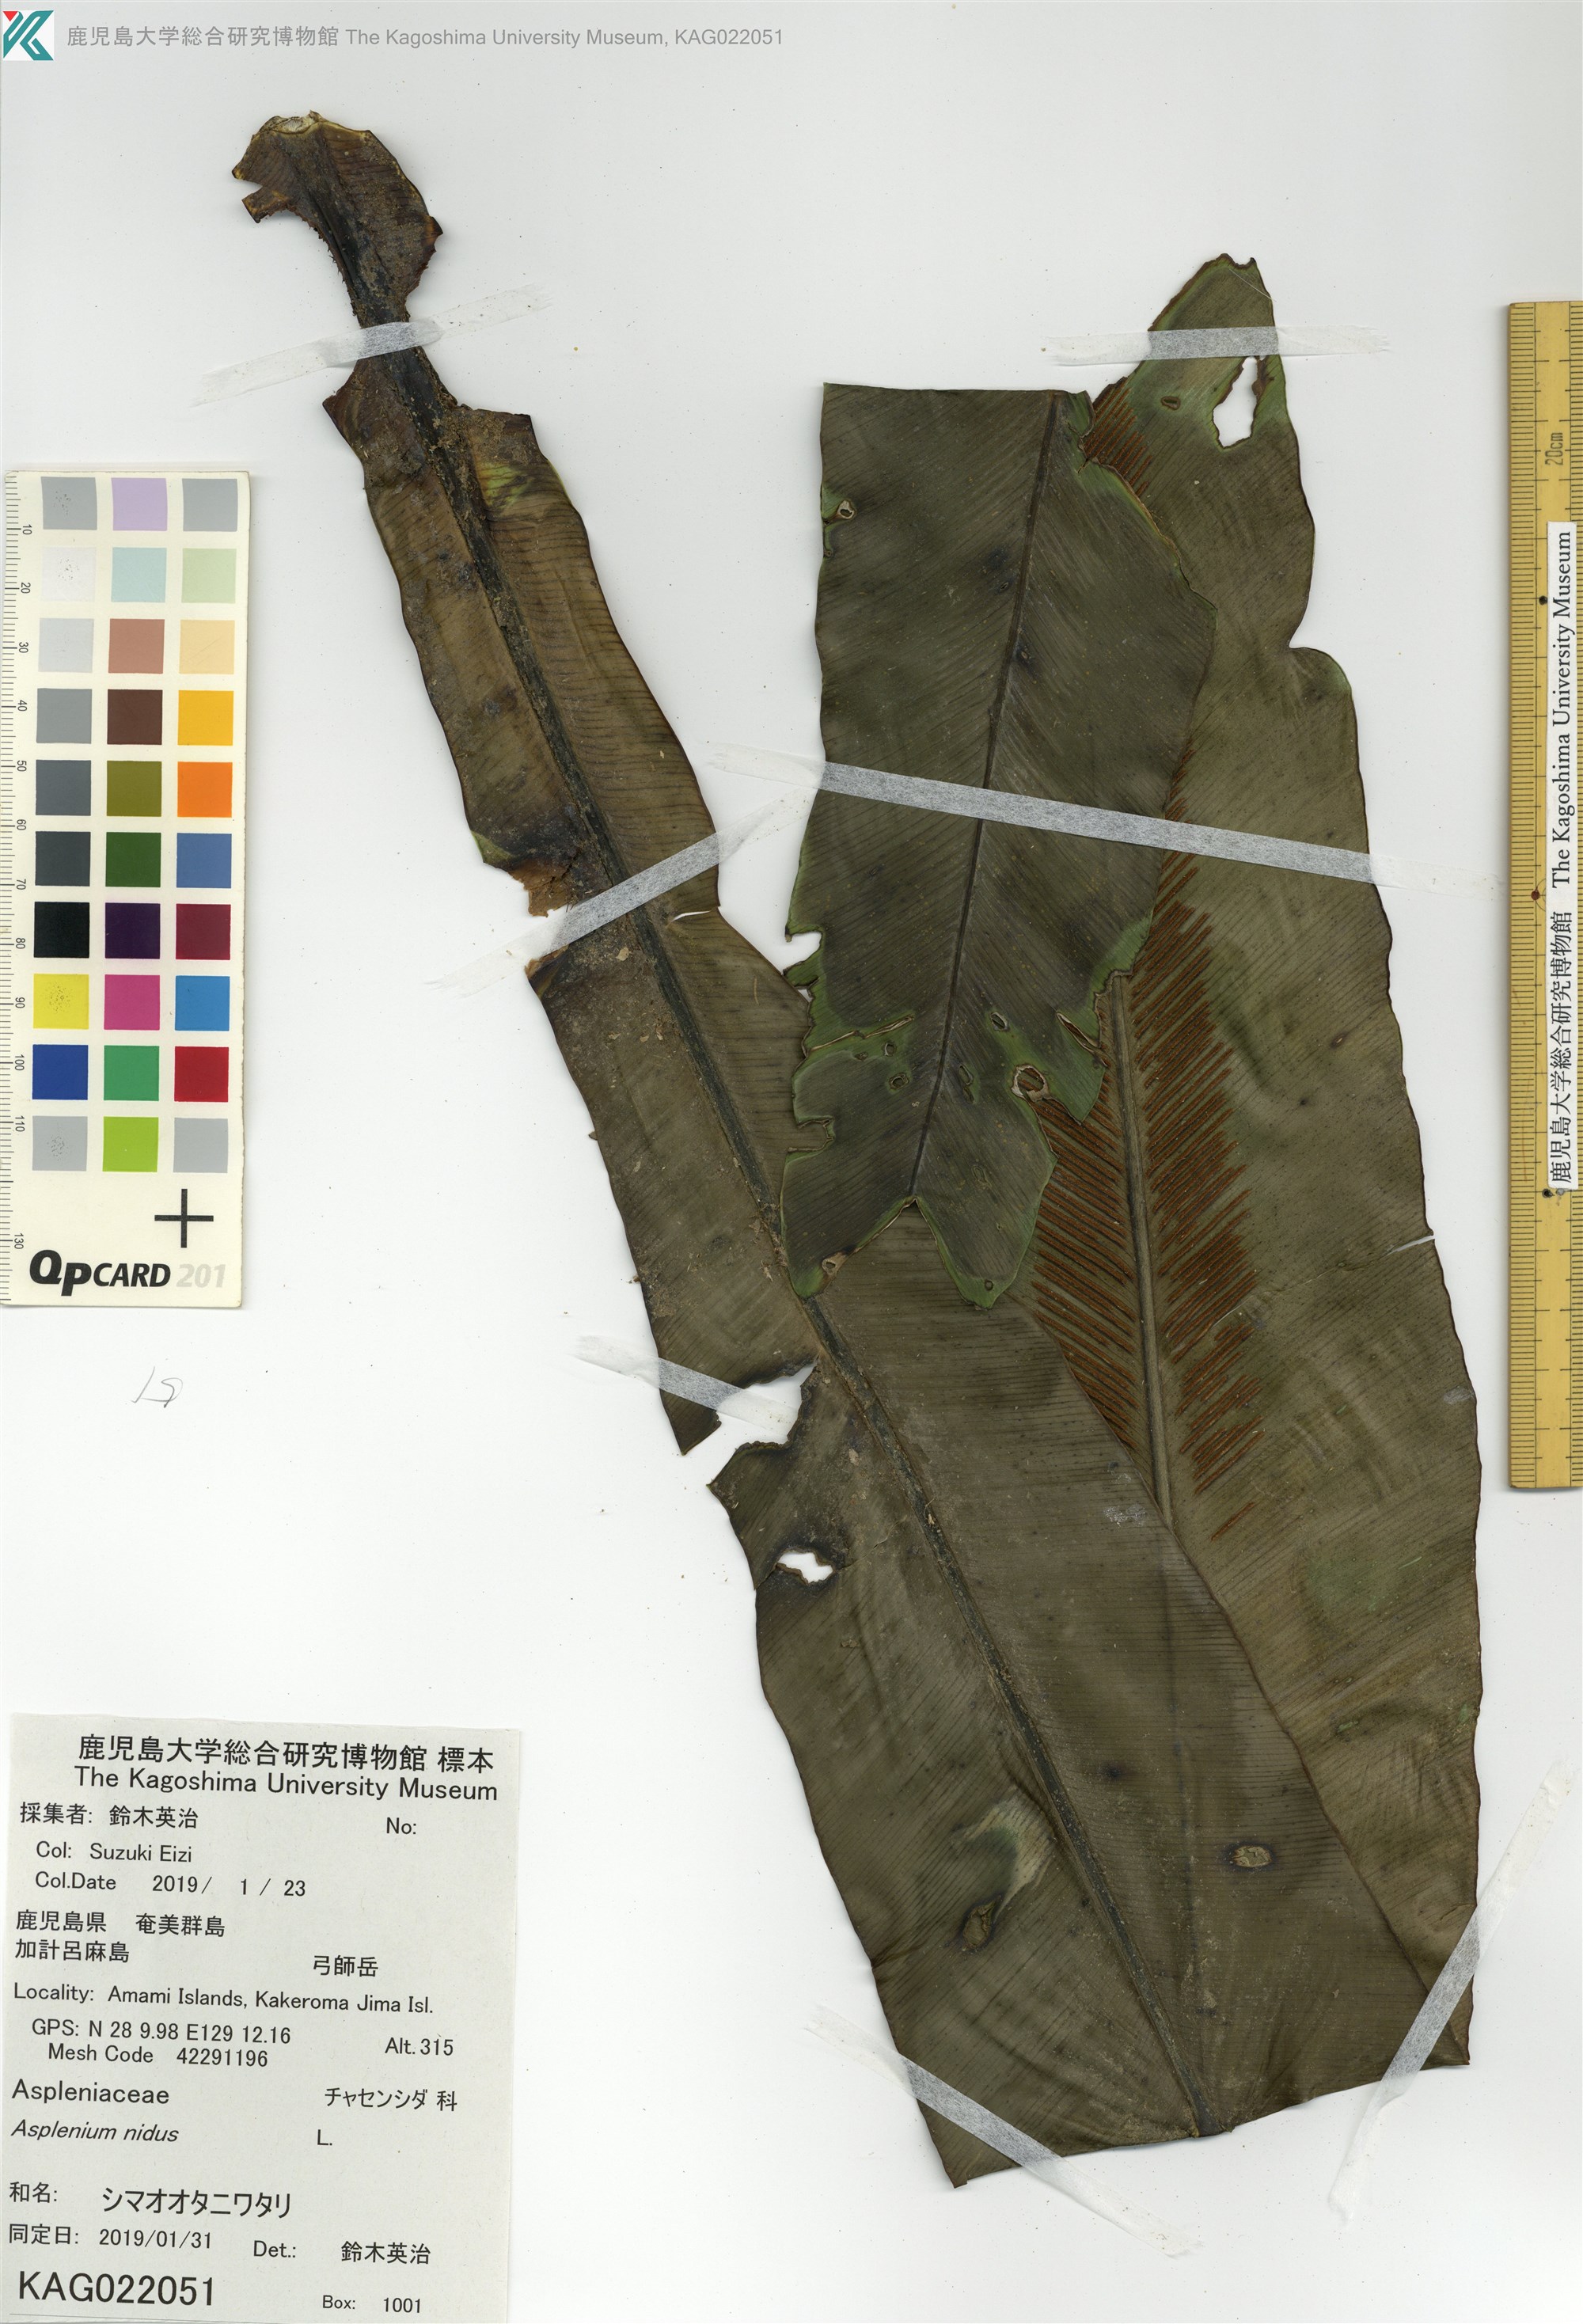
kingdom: Plantae
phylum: Tracheophyta
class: Polypodiopsida
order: Polypodiales
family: Aspleniaceae
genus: Asplenium
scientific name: Asplenium nidus
